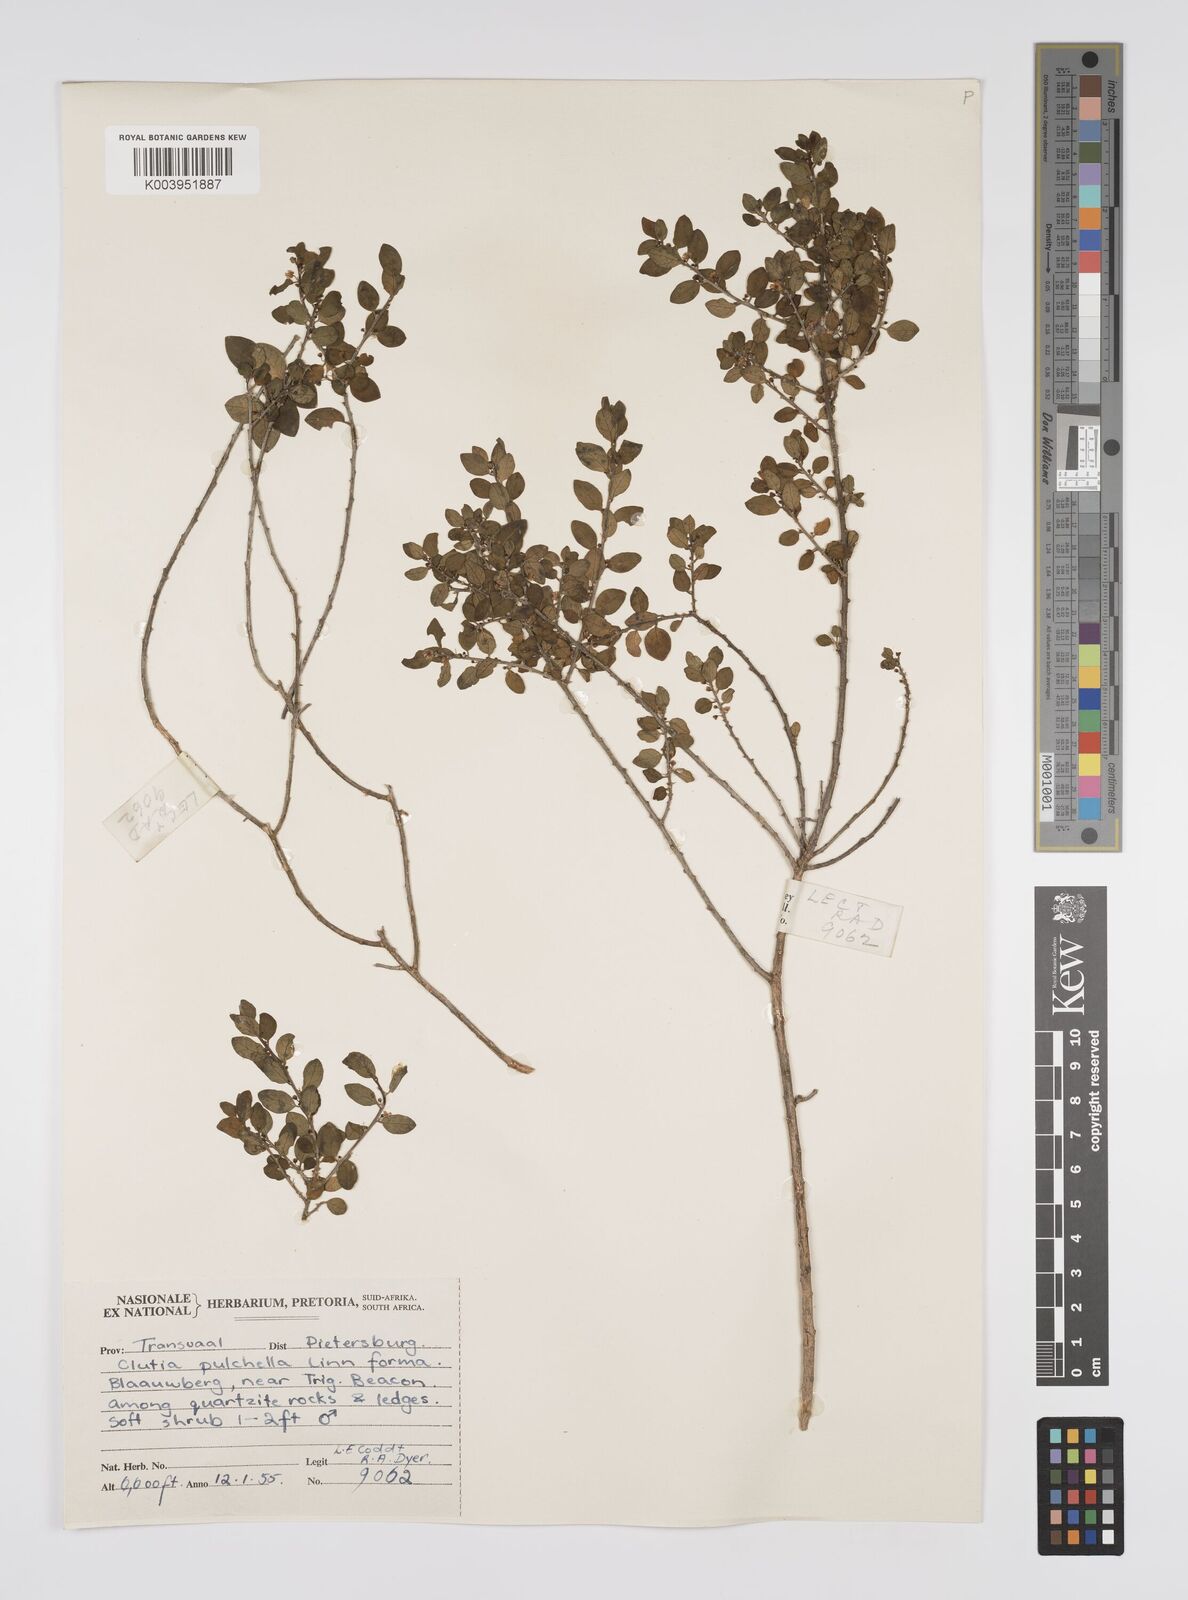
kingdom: Plantae
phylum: Tracheophyta
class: Magnoliopsida
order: Malpighiales
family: Peraceae
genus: Clutia
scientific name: Clutia galpinii
